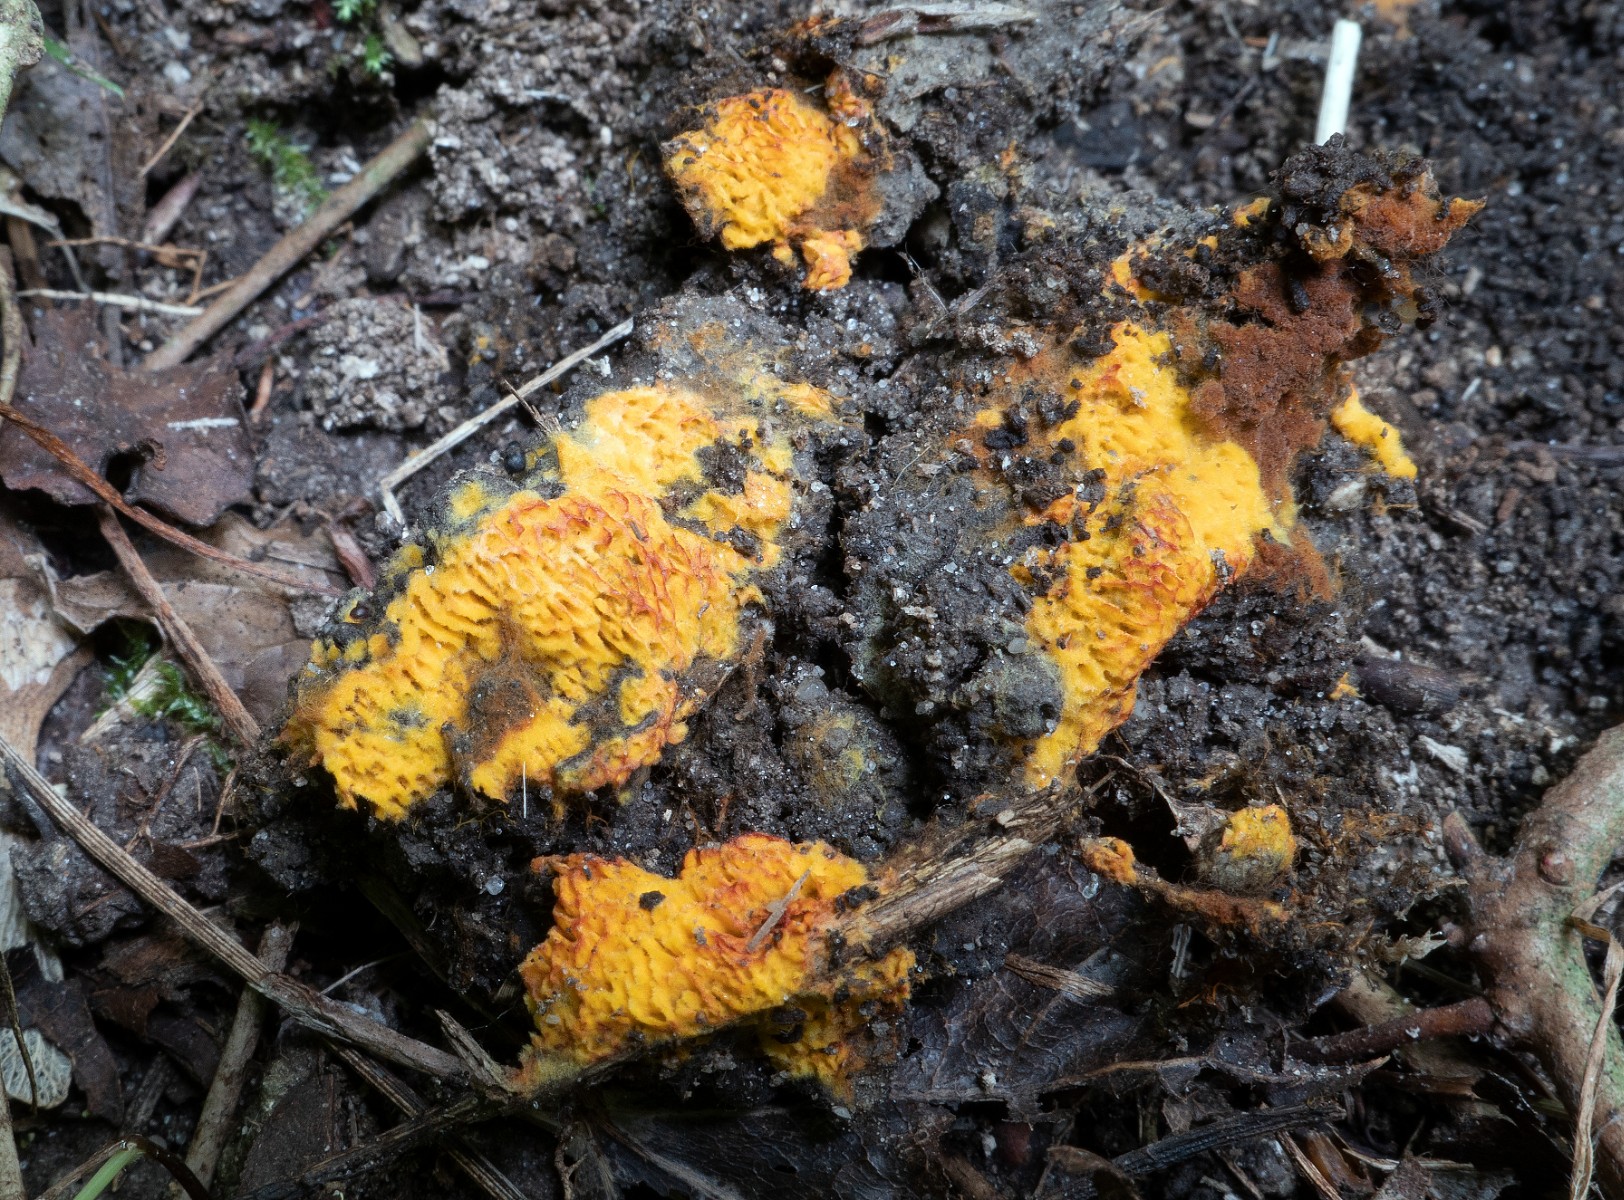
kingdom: Fungi
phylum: Basidiomycota
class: Agaricomycetes
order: Agaricales
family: Stephanosporaceae
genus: Lindtneria
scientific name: Lindtneria trachyspora
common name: labyrint-citrushinde
